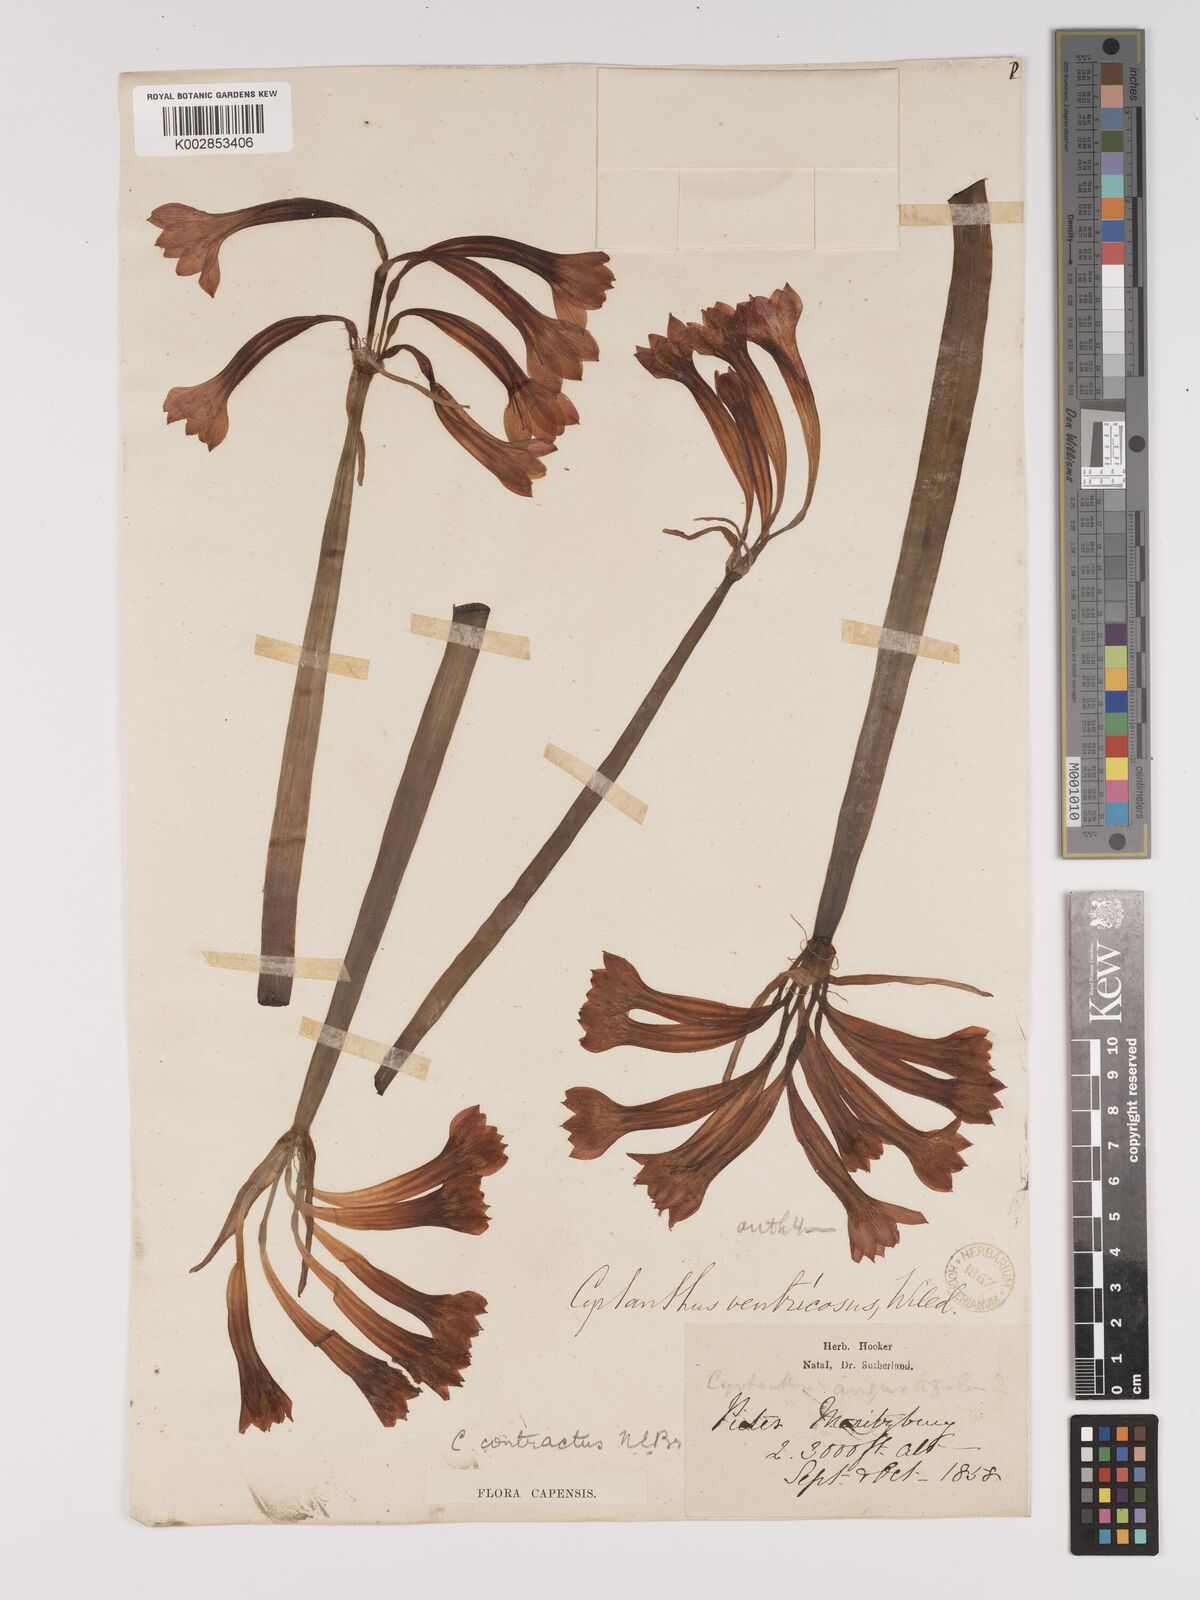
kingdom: Plantae
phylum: Tracheophyta
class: Liliopsida
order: Asparagales
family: Amaryllidaceae
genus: Cyrtanthus
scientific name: Cyrtanthus contractus
